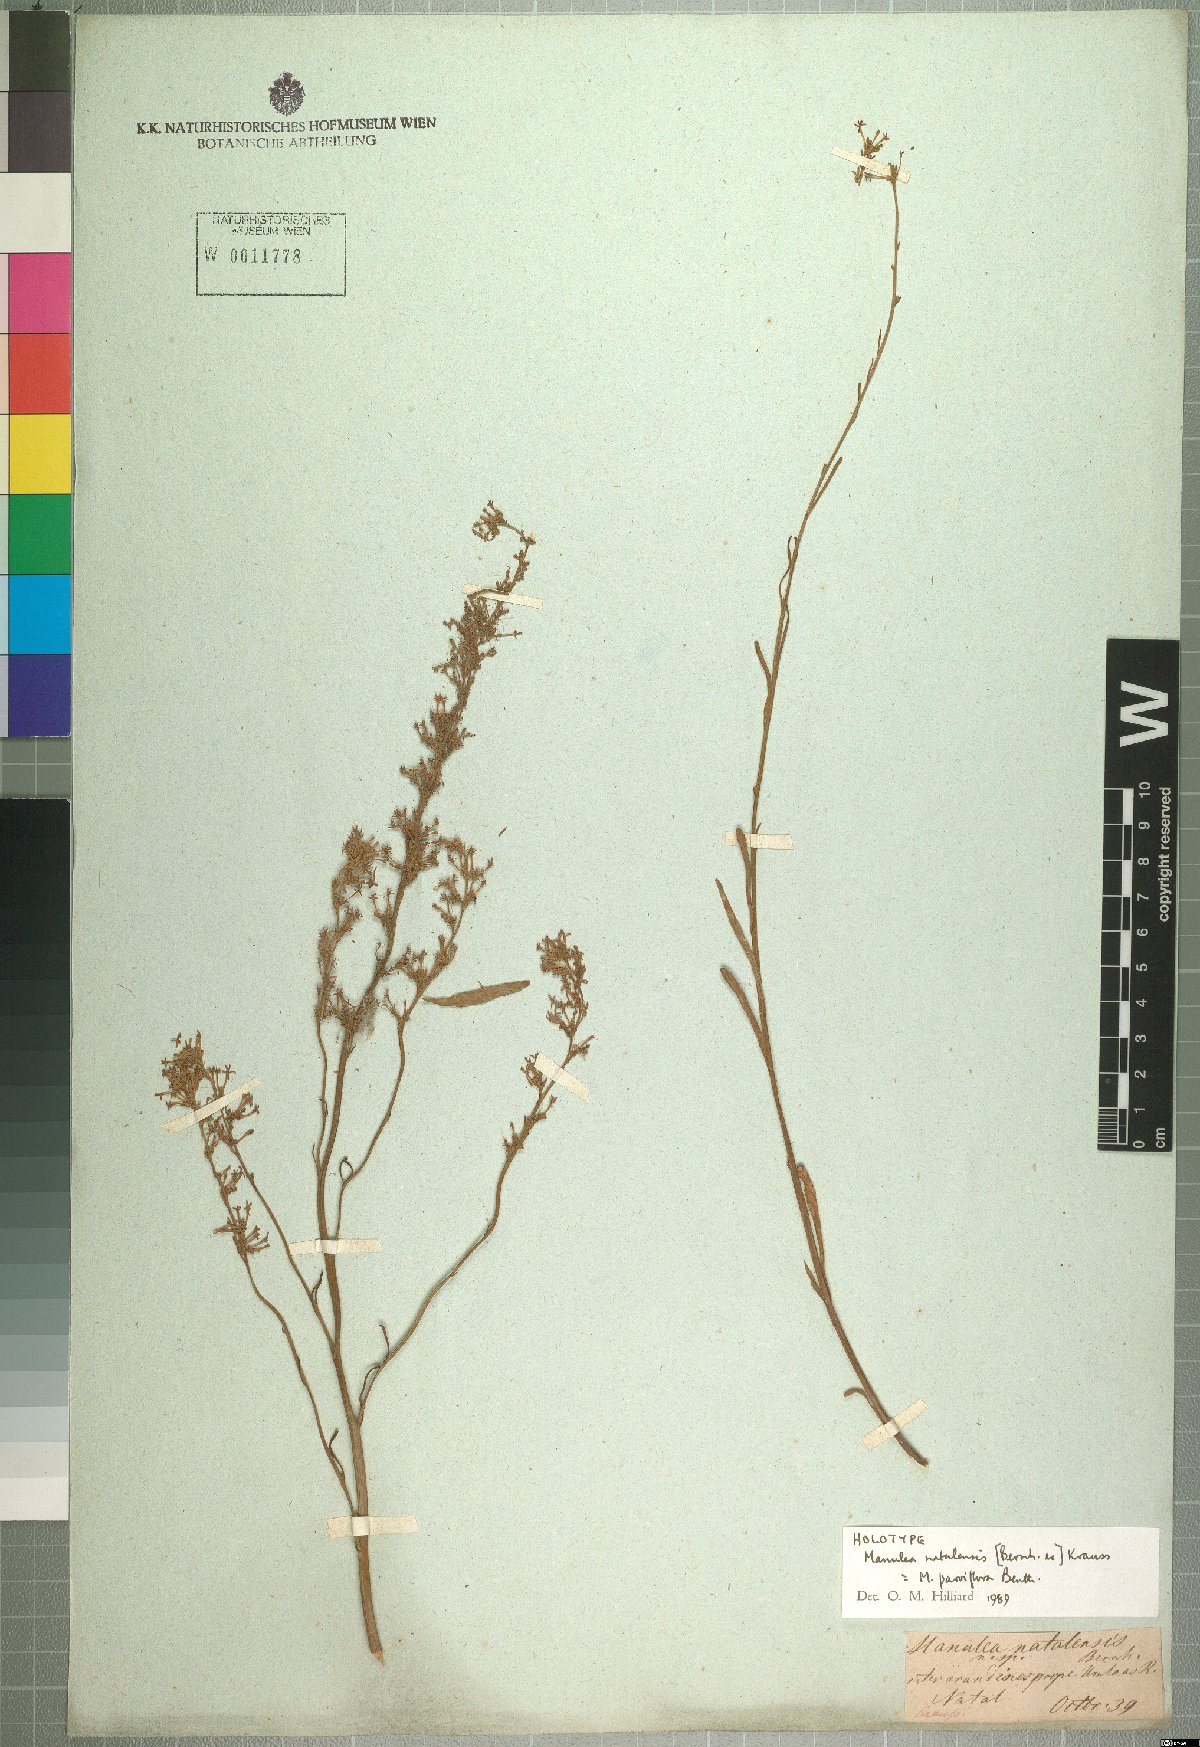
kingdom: Plantae
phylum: Tracheophyta
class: Magnoliopsida
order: Lamiales
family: Scrophulariaceae
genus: Manulea
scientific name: Manulea parviflora
